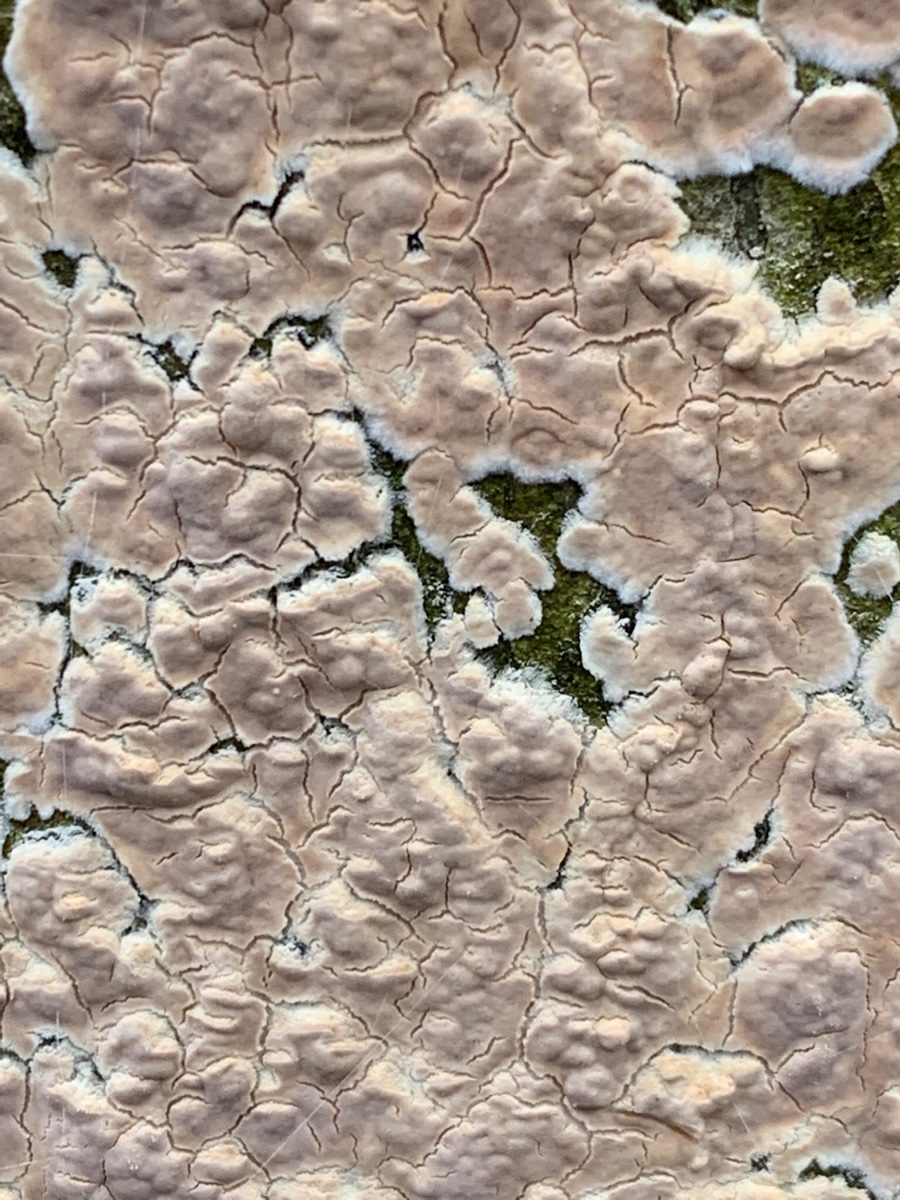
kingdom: Fungi
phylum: Basidiomycota
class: Agaricomycetes
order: Agaricales
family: Physalacriaceae
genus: Cylindrobasidium
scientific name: Cylindrobasidium evolvens
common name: sprækkehinde
